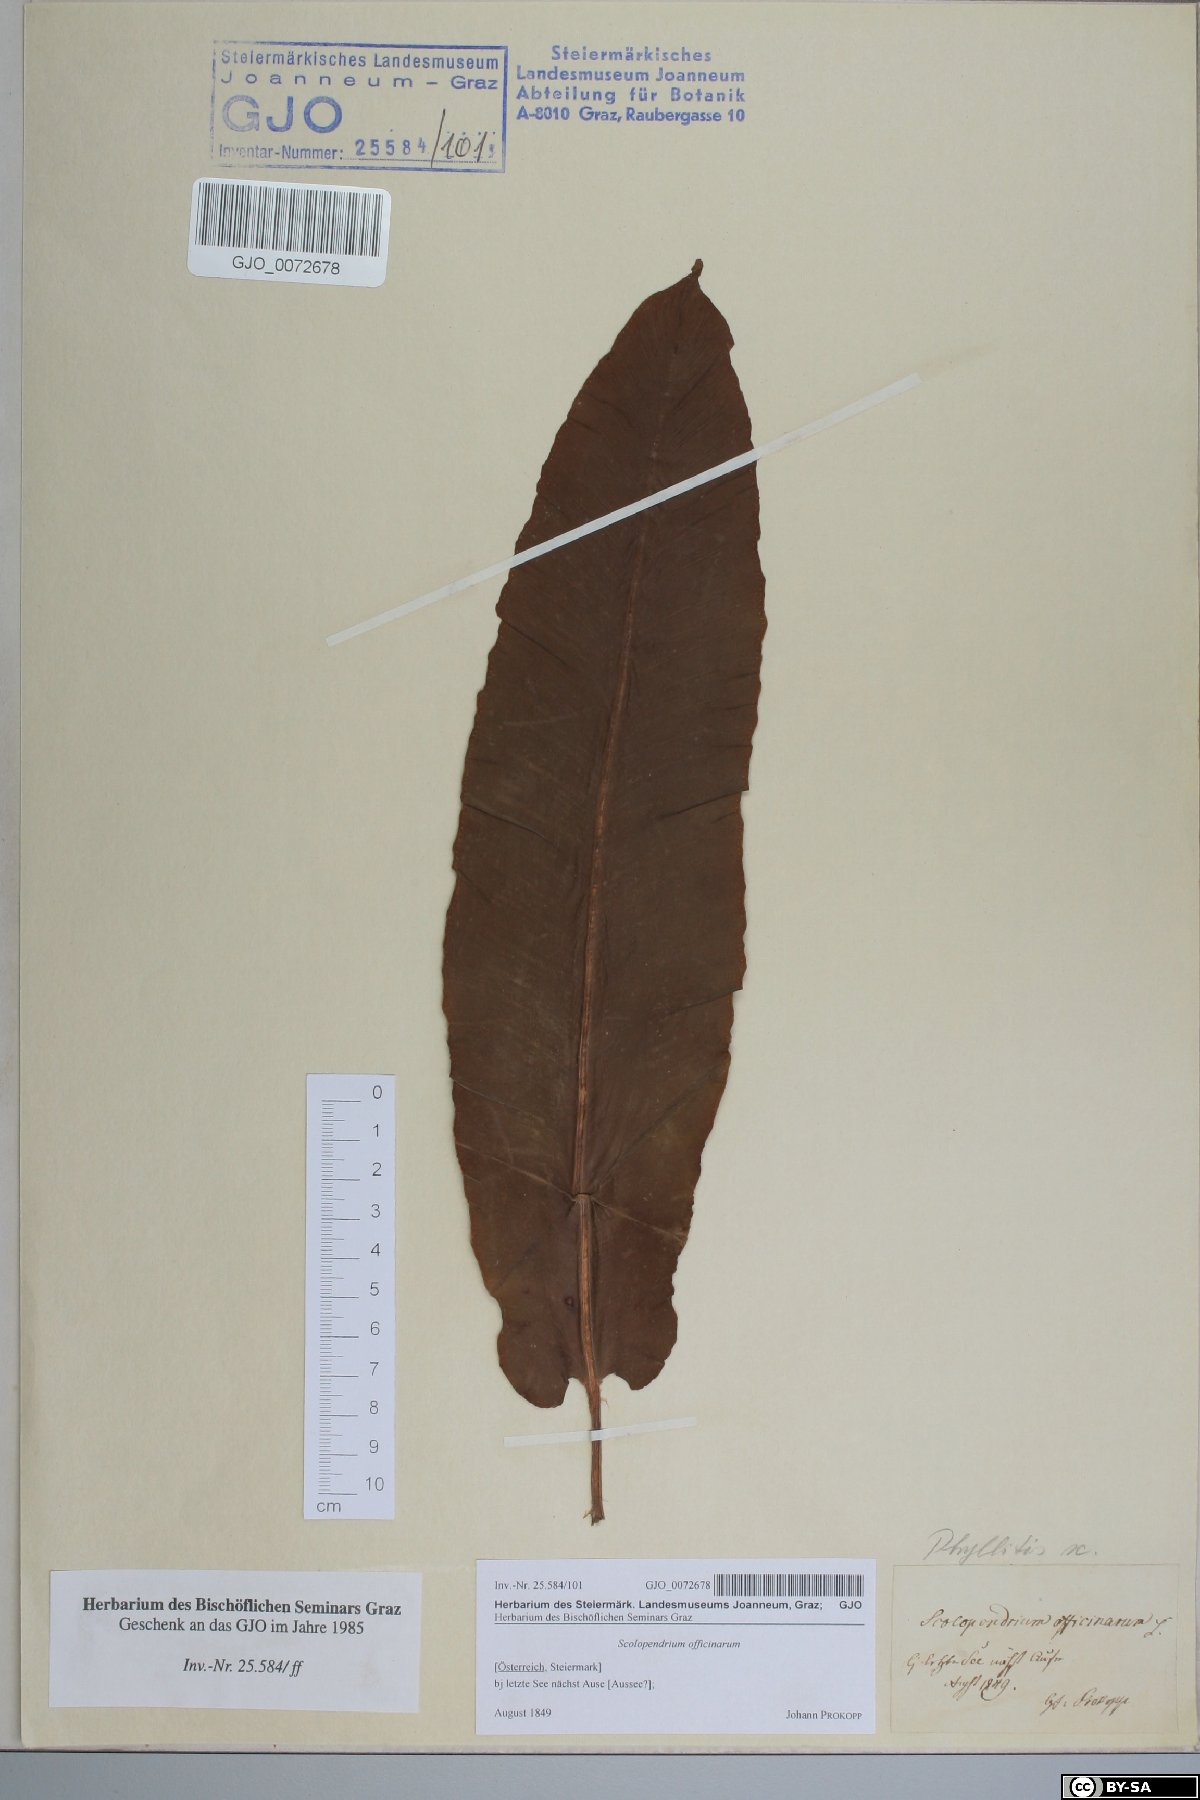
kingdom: Plantae
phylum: Tracheophyta
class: Polypodiopsida
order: Polypodiales
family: Aspleniaceae
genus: Asplenium
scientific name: Asplenium scolopendrium
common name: Hart's-tongue fern
